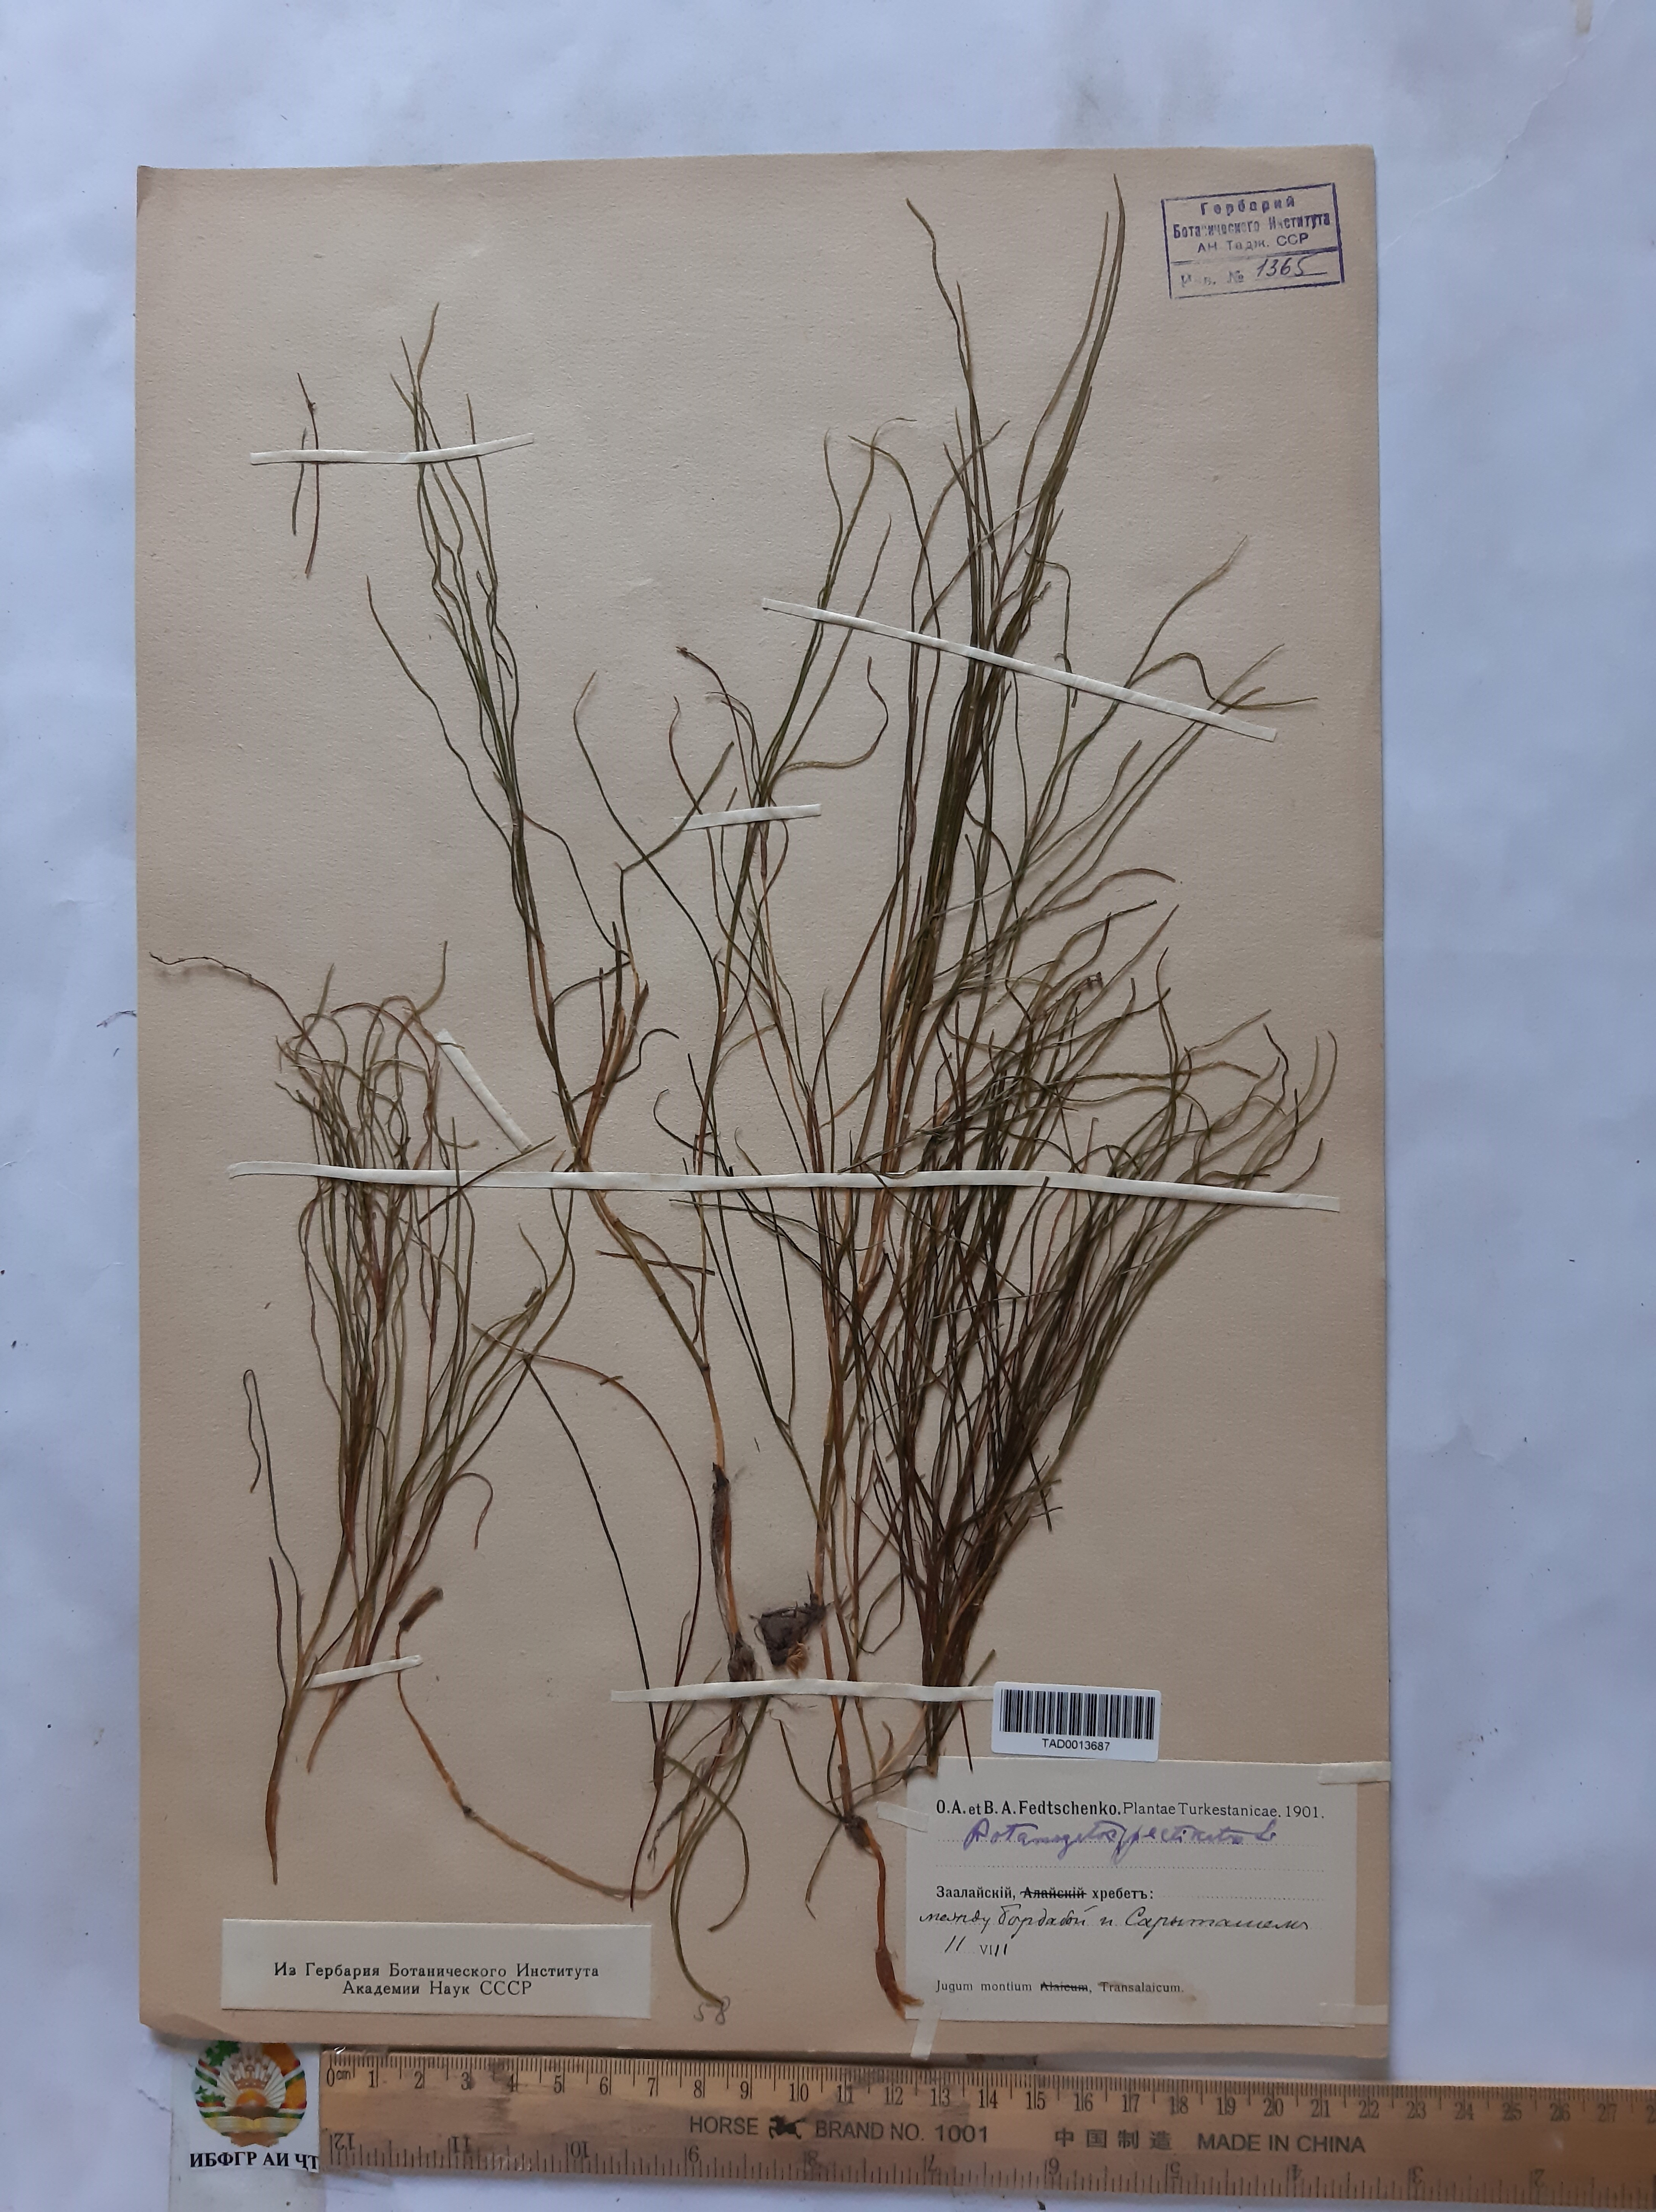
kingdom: Plantae
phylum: Tracheophyta
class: Liliopsida
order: Alismatales
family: Potamogetonaceae
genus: Potamogeton
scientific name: Potamogeton pusillus
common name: Lesser pondweed
